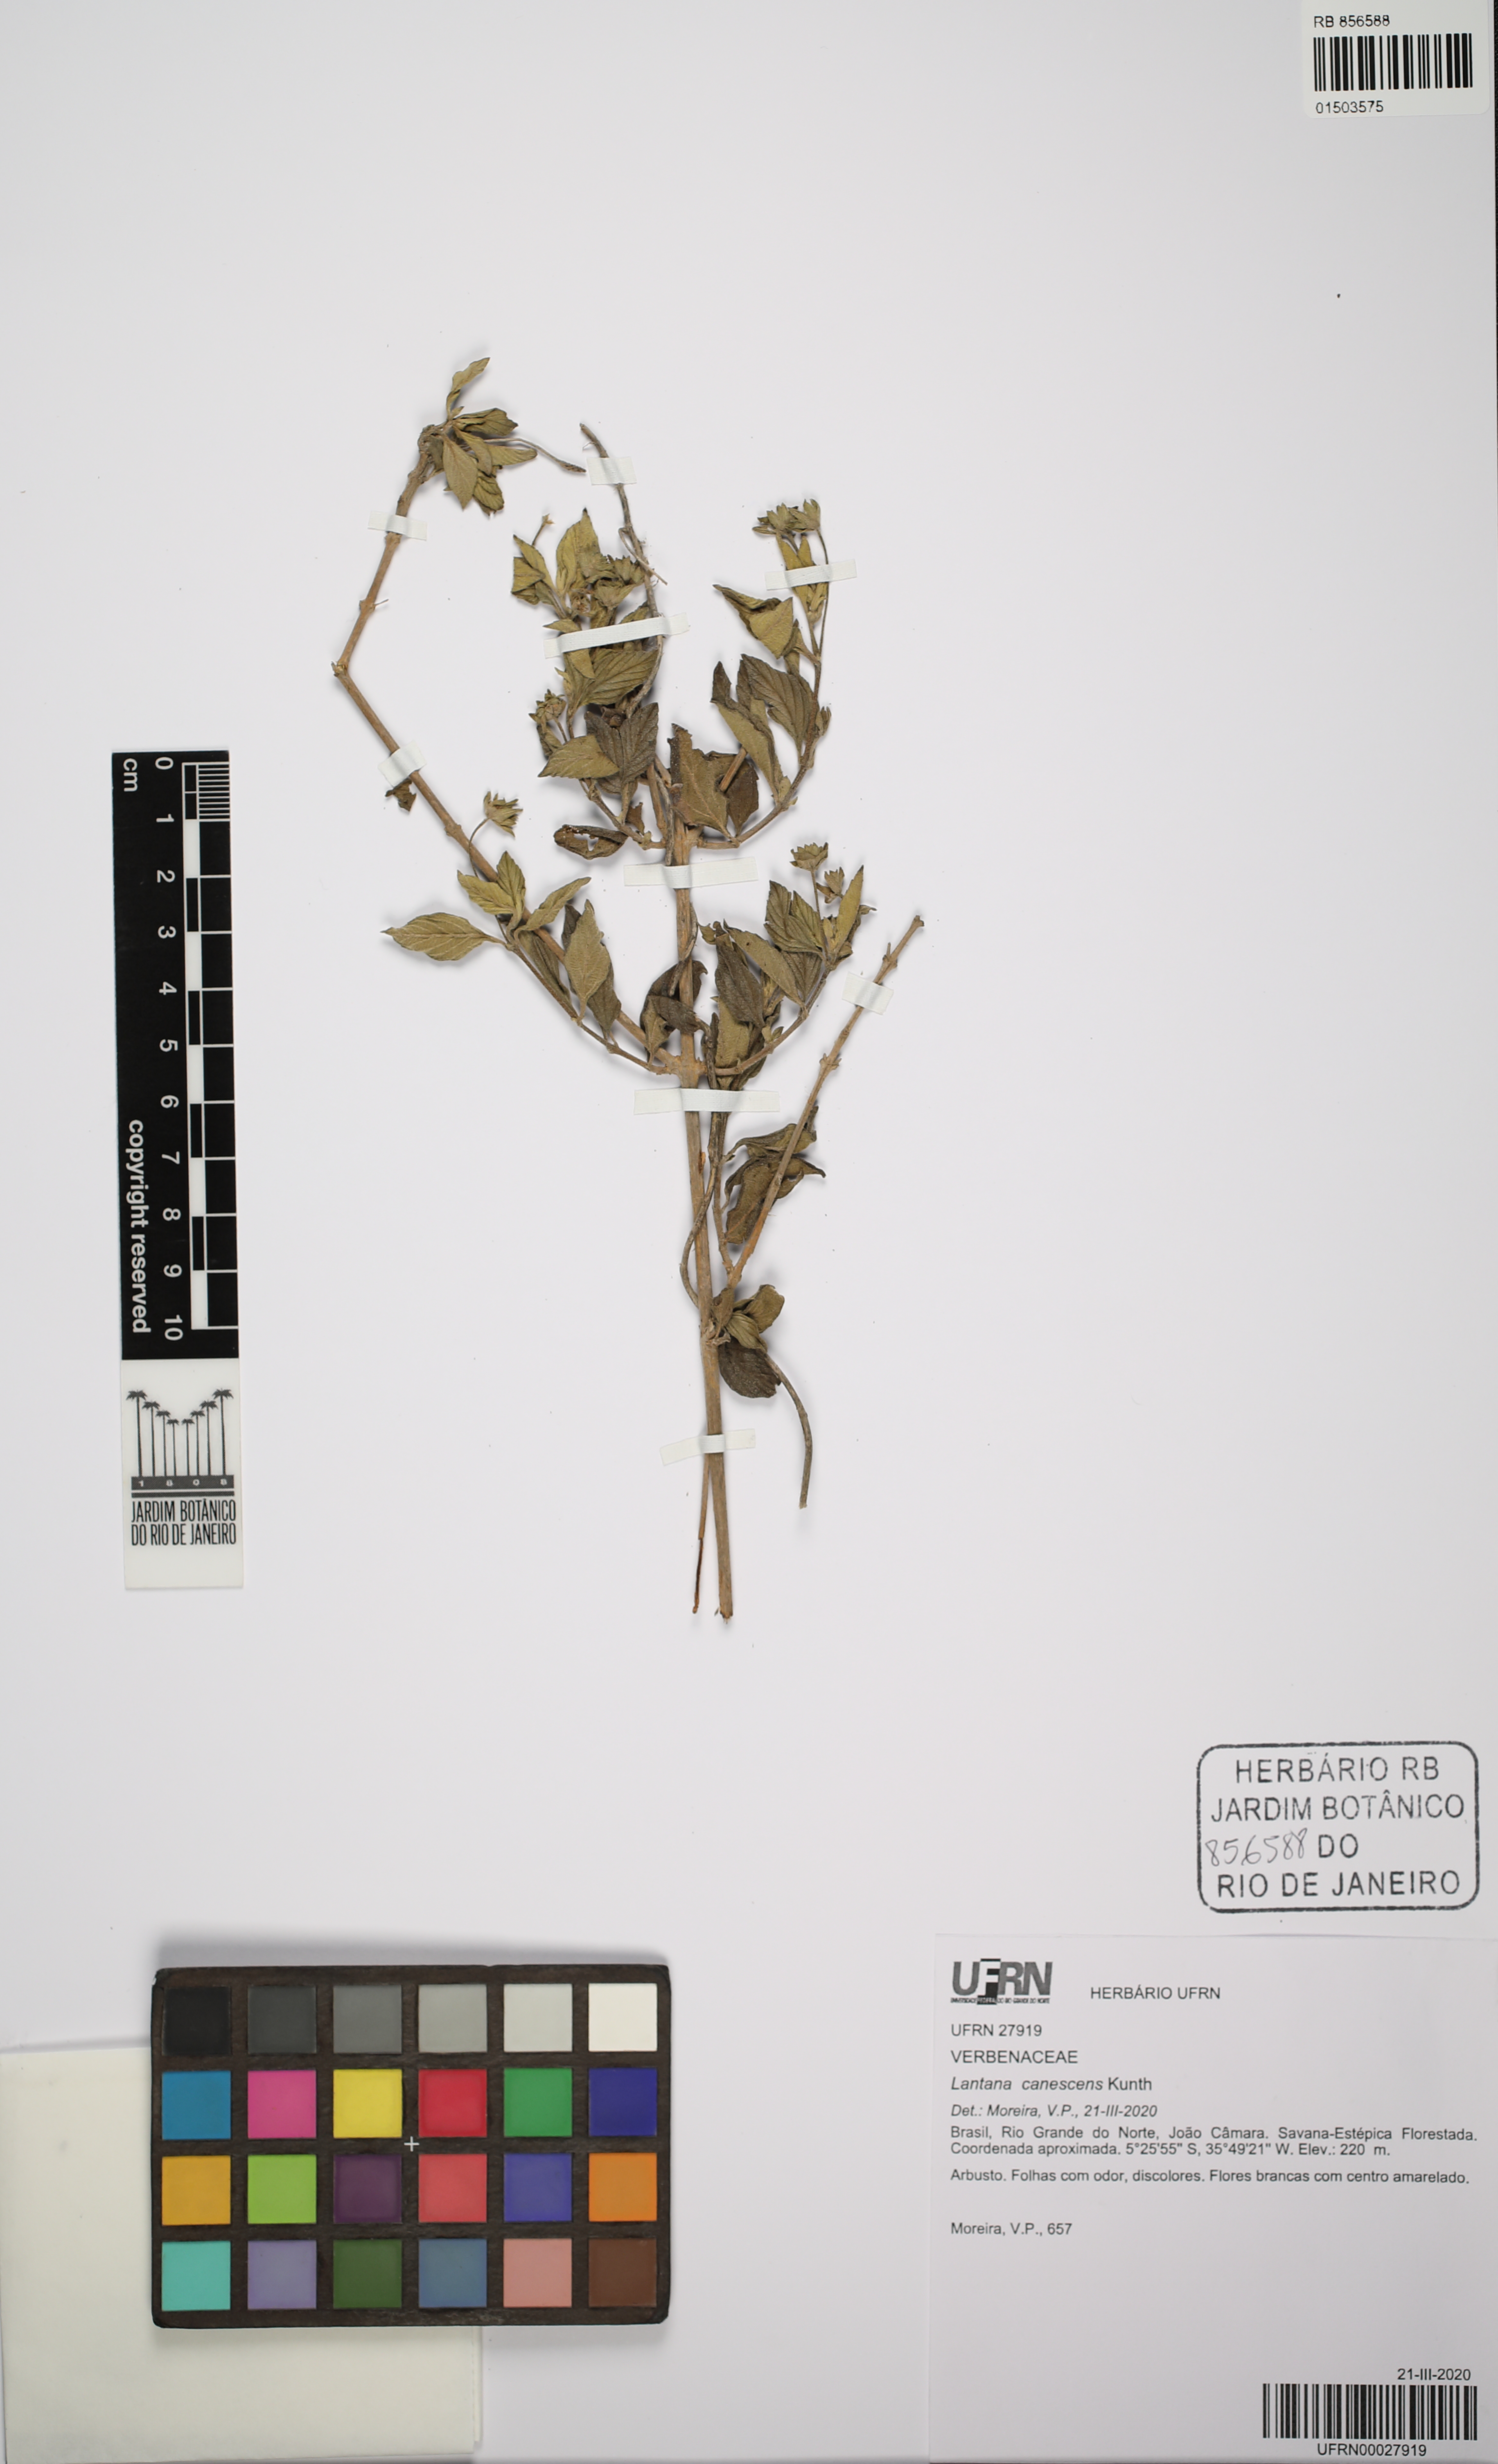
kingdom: Plantae
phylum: Tracheophyta
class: Magnoliopsida
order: Lamiales
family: Verbenaceae
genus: Lantana
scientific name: Lantana canescens
